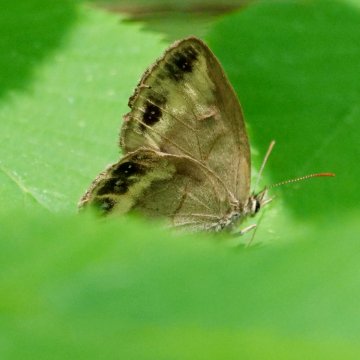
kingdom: Animalia
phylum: Arthropoda
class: Insecta
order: Lepidoptera
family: Nymphalidae
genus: Euptychia
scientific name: Euptychia cymela
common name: Little Wood Satyr
